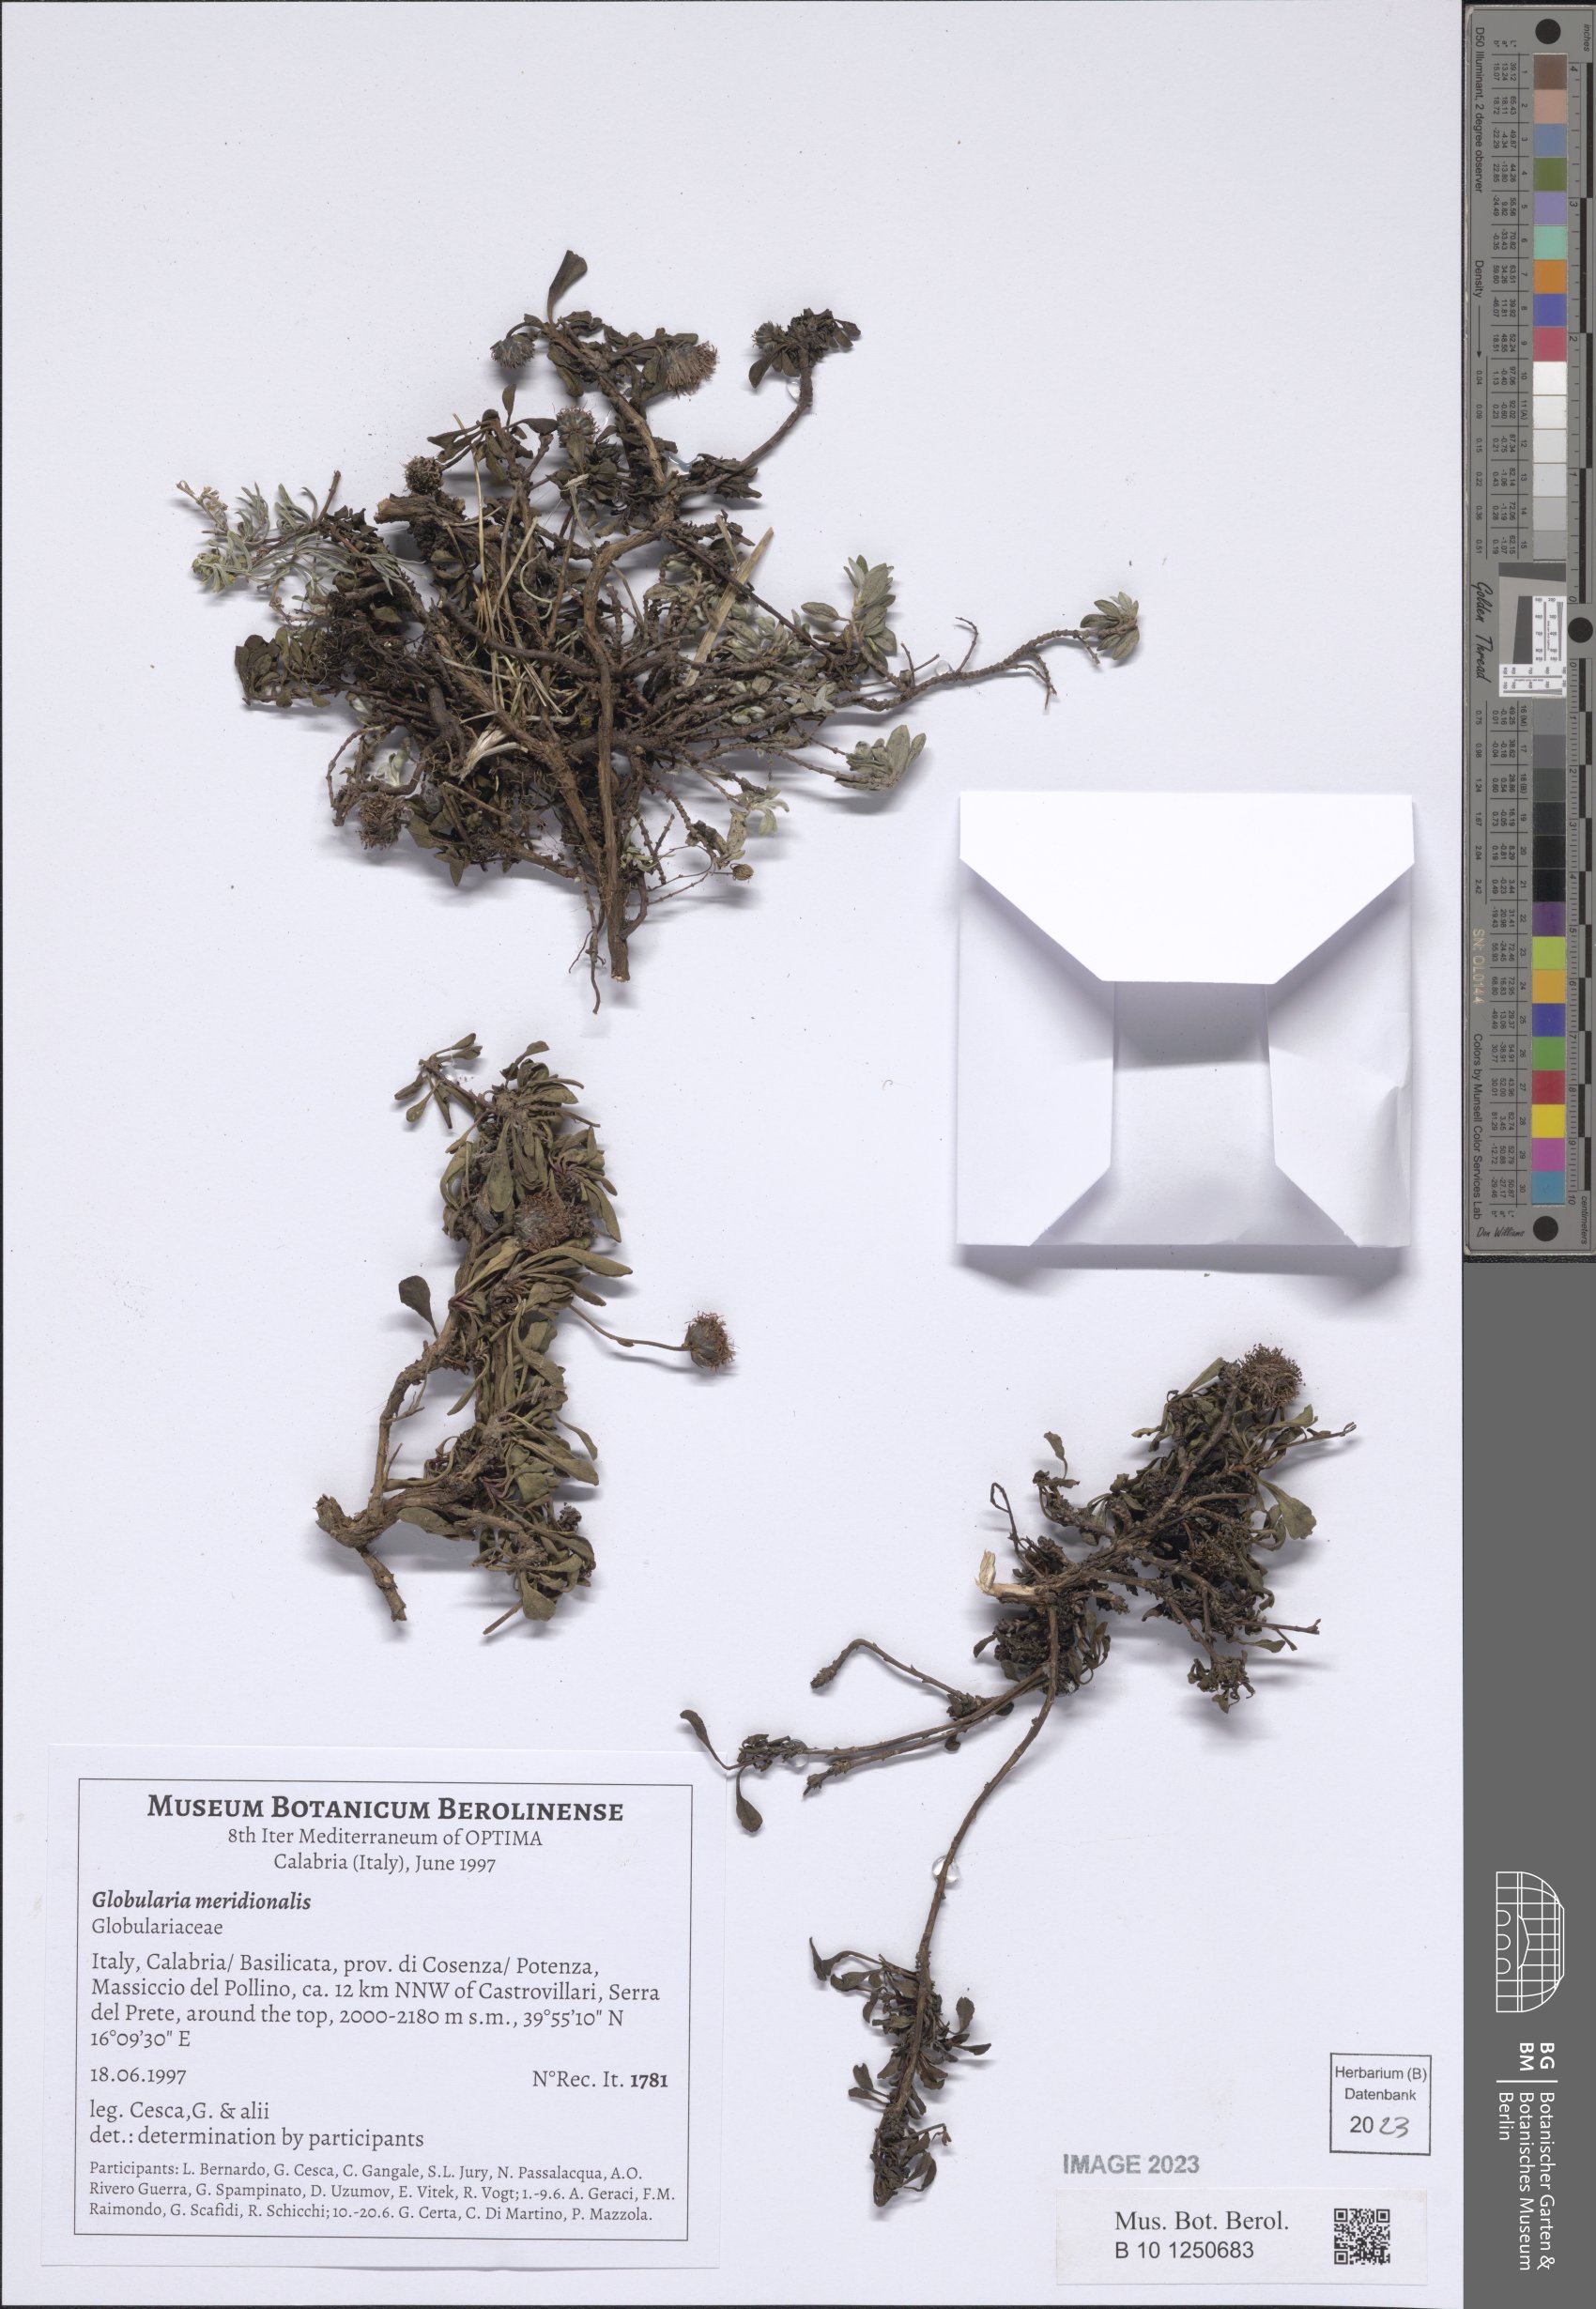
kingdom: Plantae
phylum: Tracheophyta
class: Magnoliopsida
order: Lamiales
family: Plantaginaceae
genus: Globularia
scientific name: Globularia meridionalis
